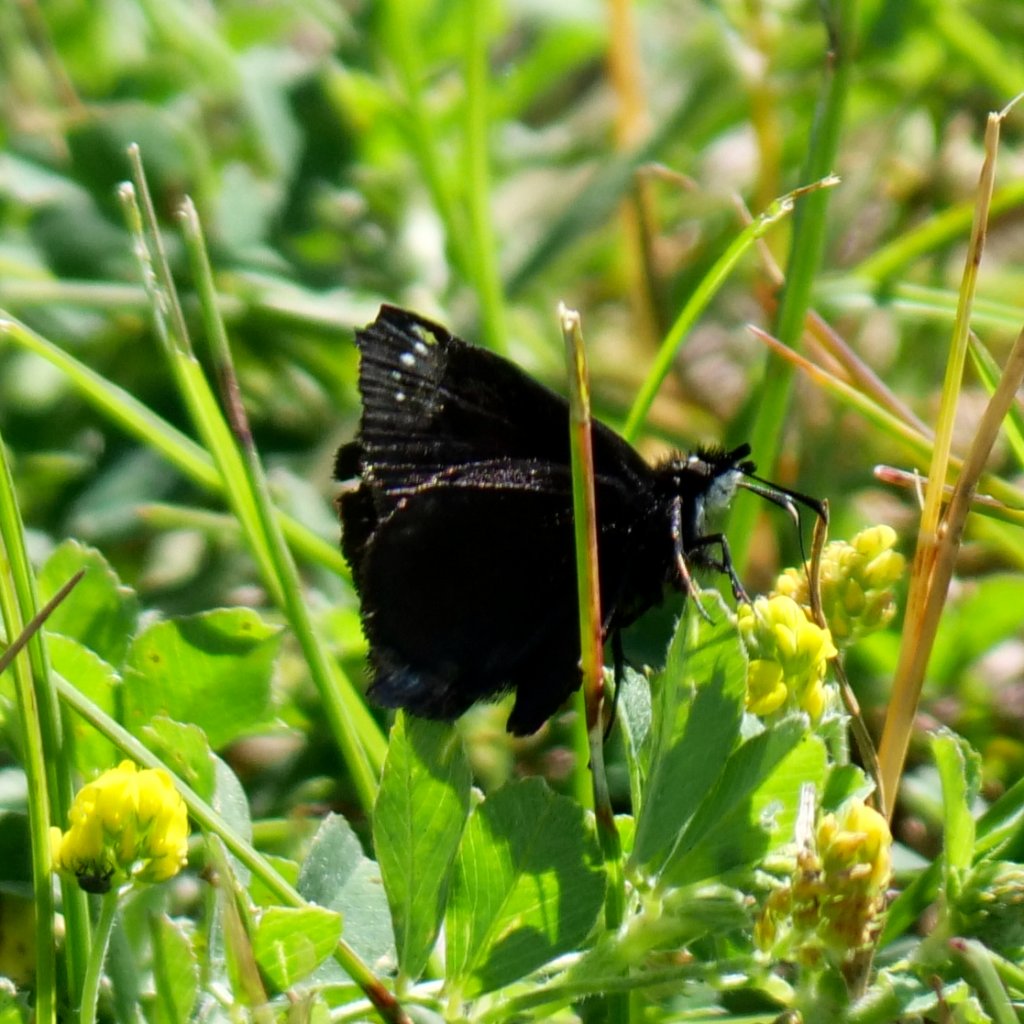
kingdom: Animalia
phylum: Arthropoda
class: Insecta
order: Lepidoptera
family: Hesperiidae
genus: Pholisora
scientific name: Pholisora catullus
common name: Common Sootywing
